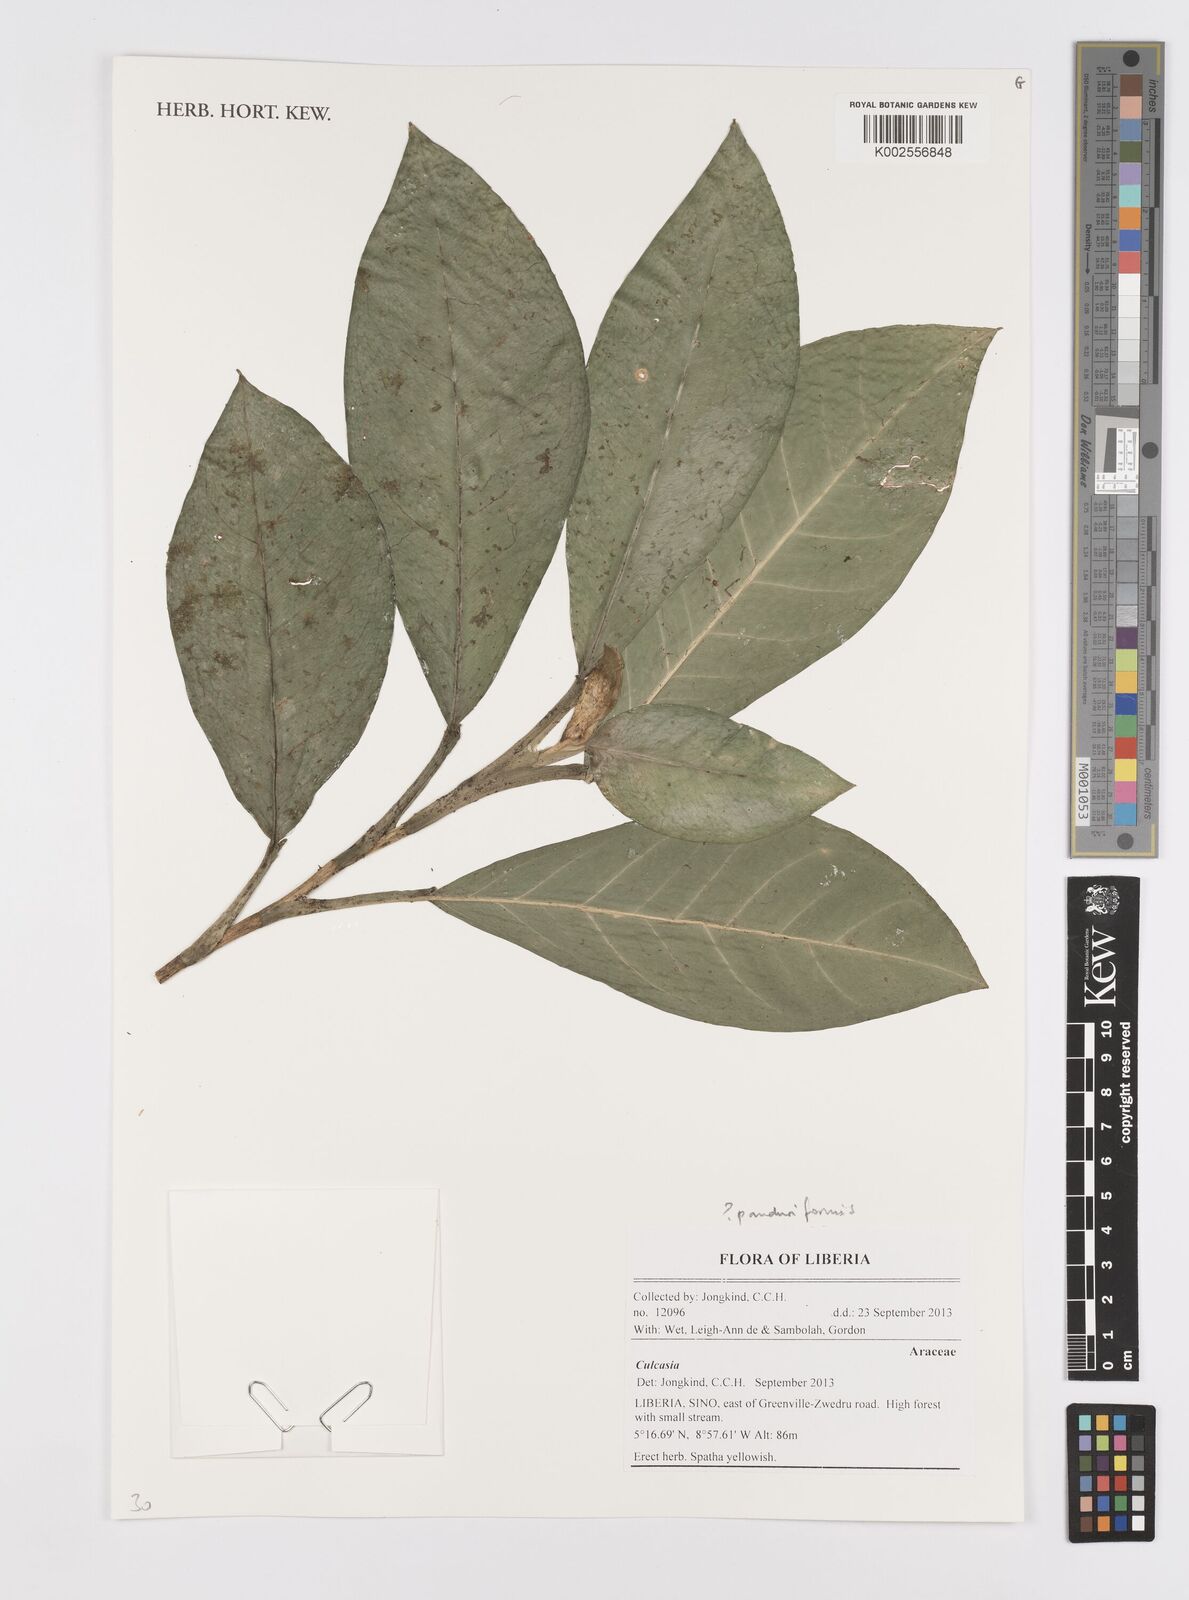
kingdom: Plantae
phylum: Tracheophyta
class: Liliopsida
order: Alismatales
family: Araceae
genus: Culcasia
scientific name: Culcasia panduriformis
